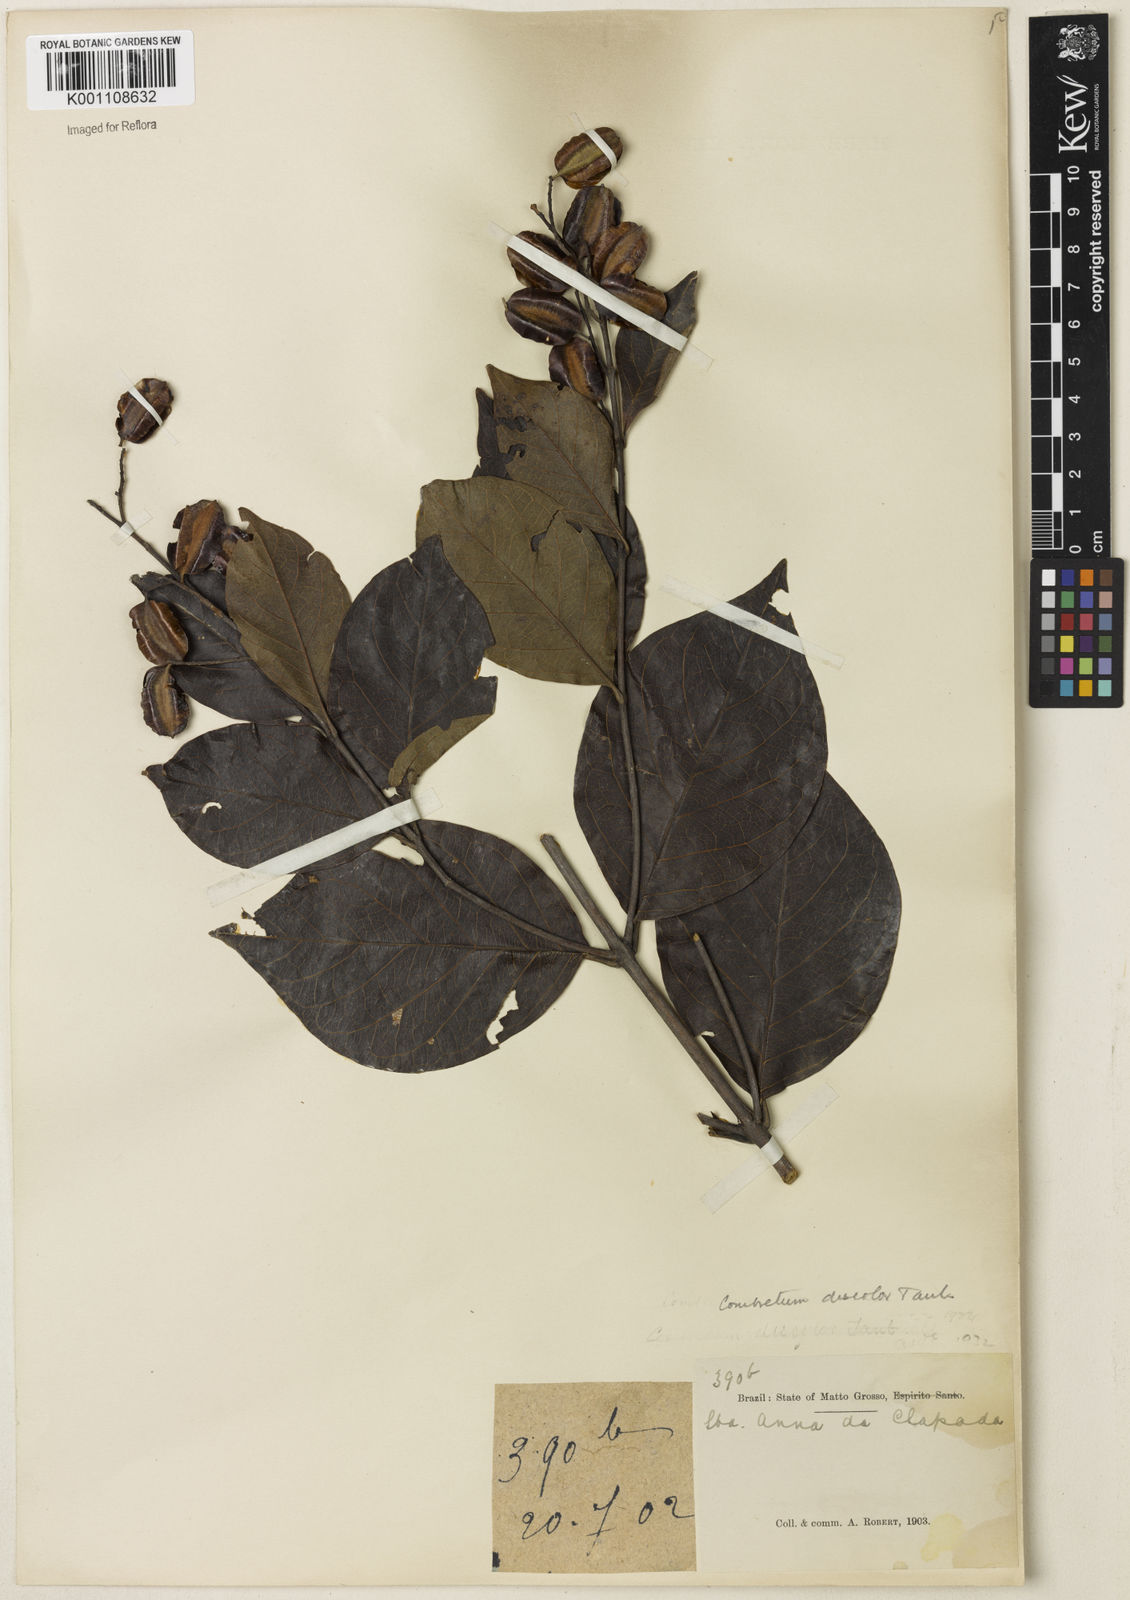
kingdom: Plantae
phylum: Tracheophyta
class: Magnoliopsida
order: Myrtales
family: Combretaceae
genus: Combretum
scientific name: Combretum discolor
